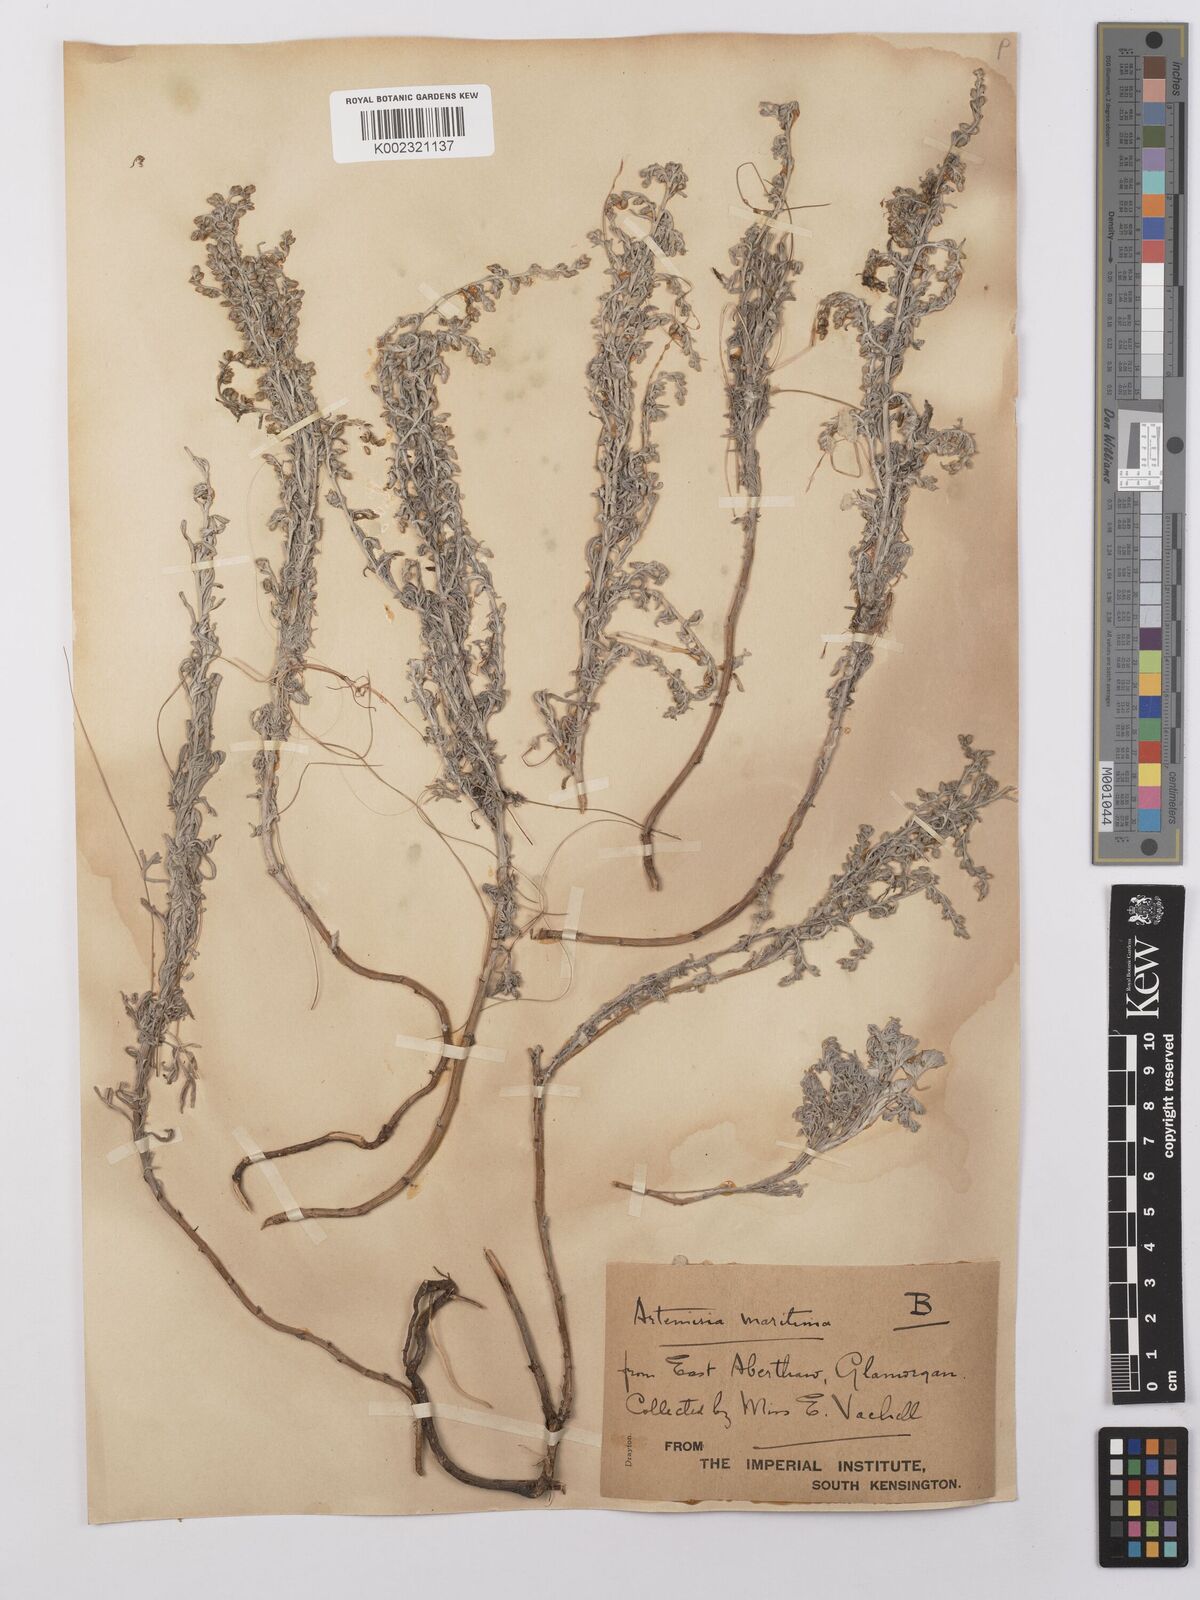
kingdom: Plantae
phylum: Tracheophyta
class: Magnoliopsida
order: Asterales
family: Asteraceae
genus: Artemisia
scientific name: Artemisia maritima
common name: Wormseed
